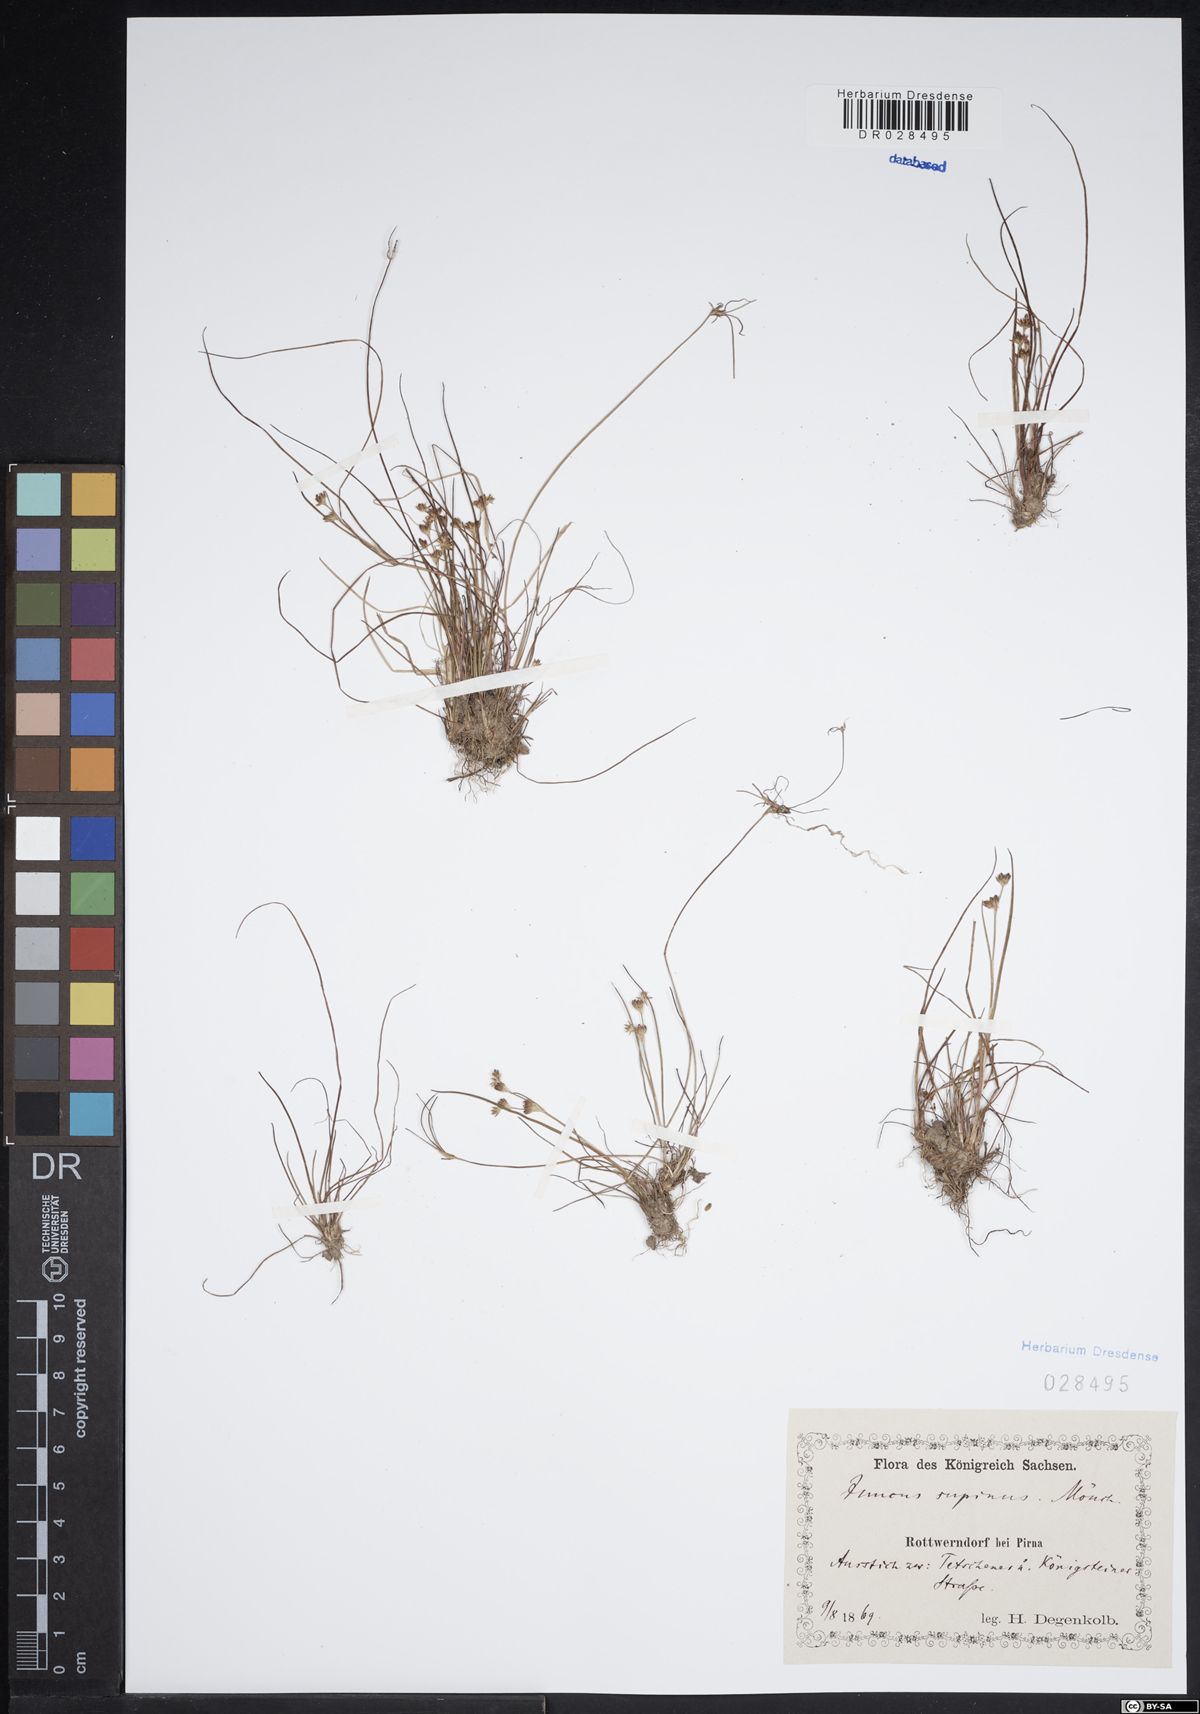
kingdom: Plantae
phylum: Tracheophyta
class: Liliopsida
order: Poales
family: Juncaceae
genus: Juncus
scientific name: Juncus bulbosus
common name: Bulbous rush
